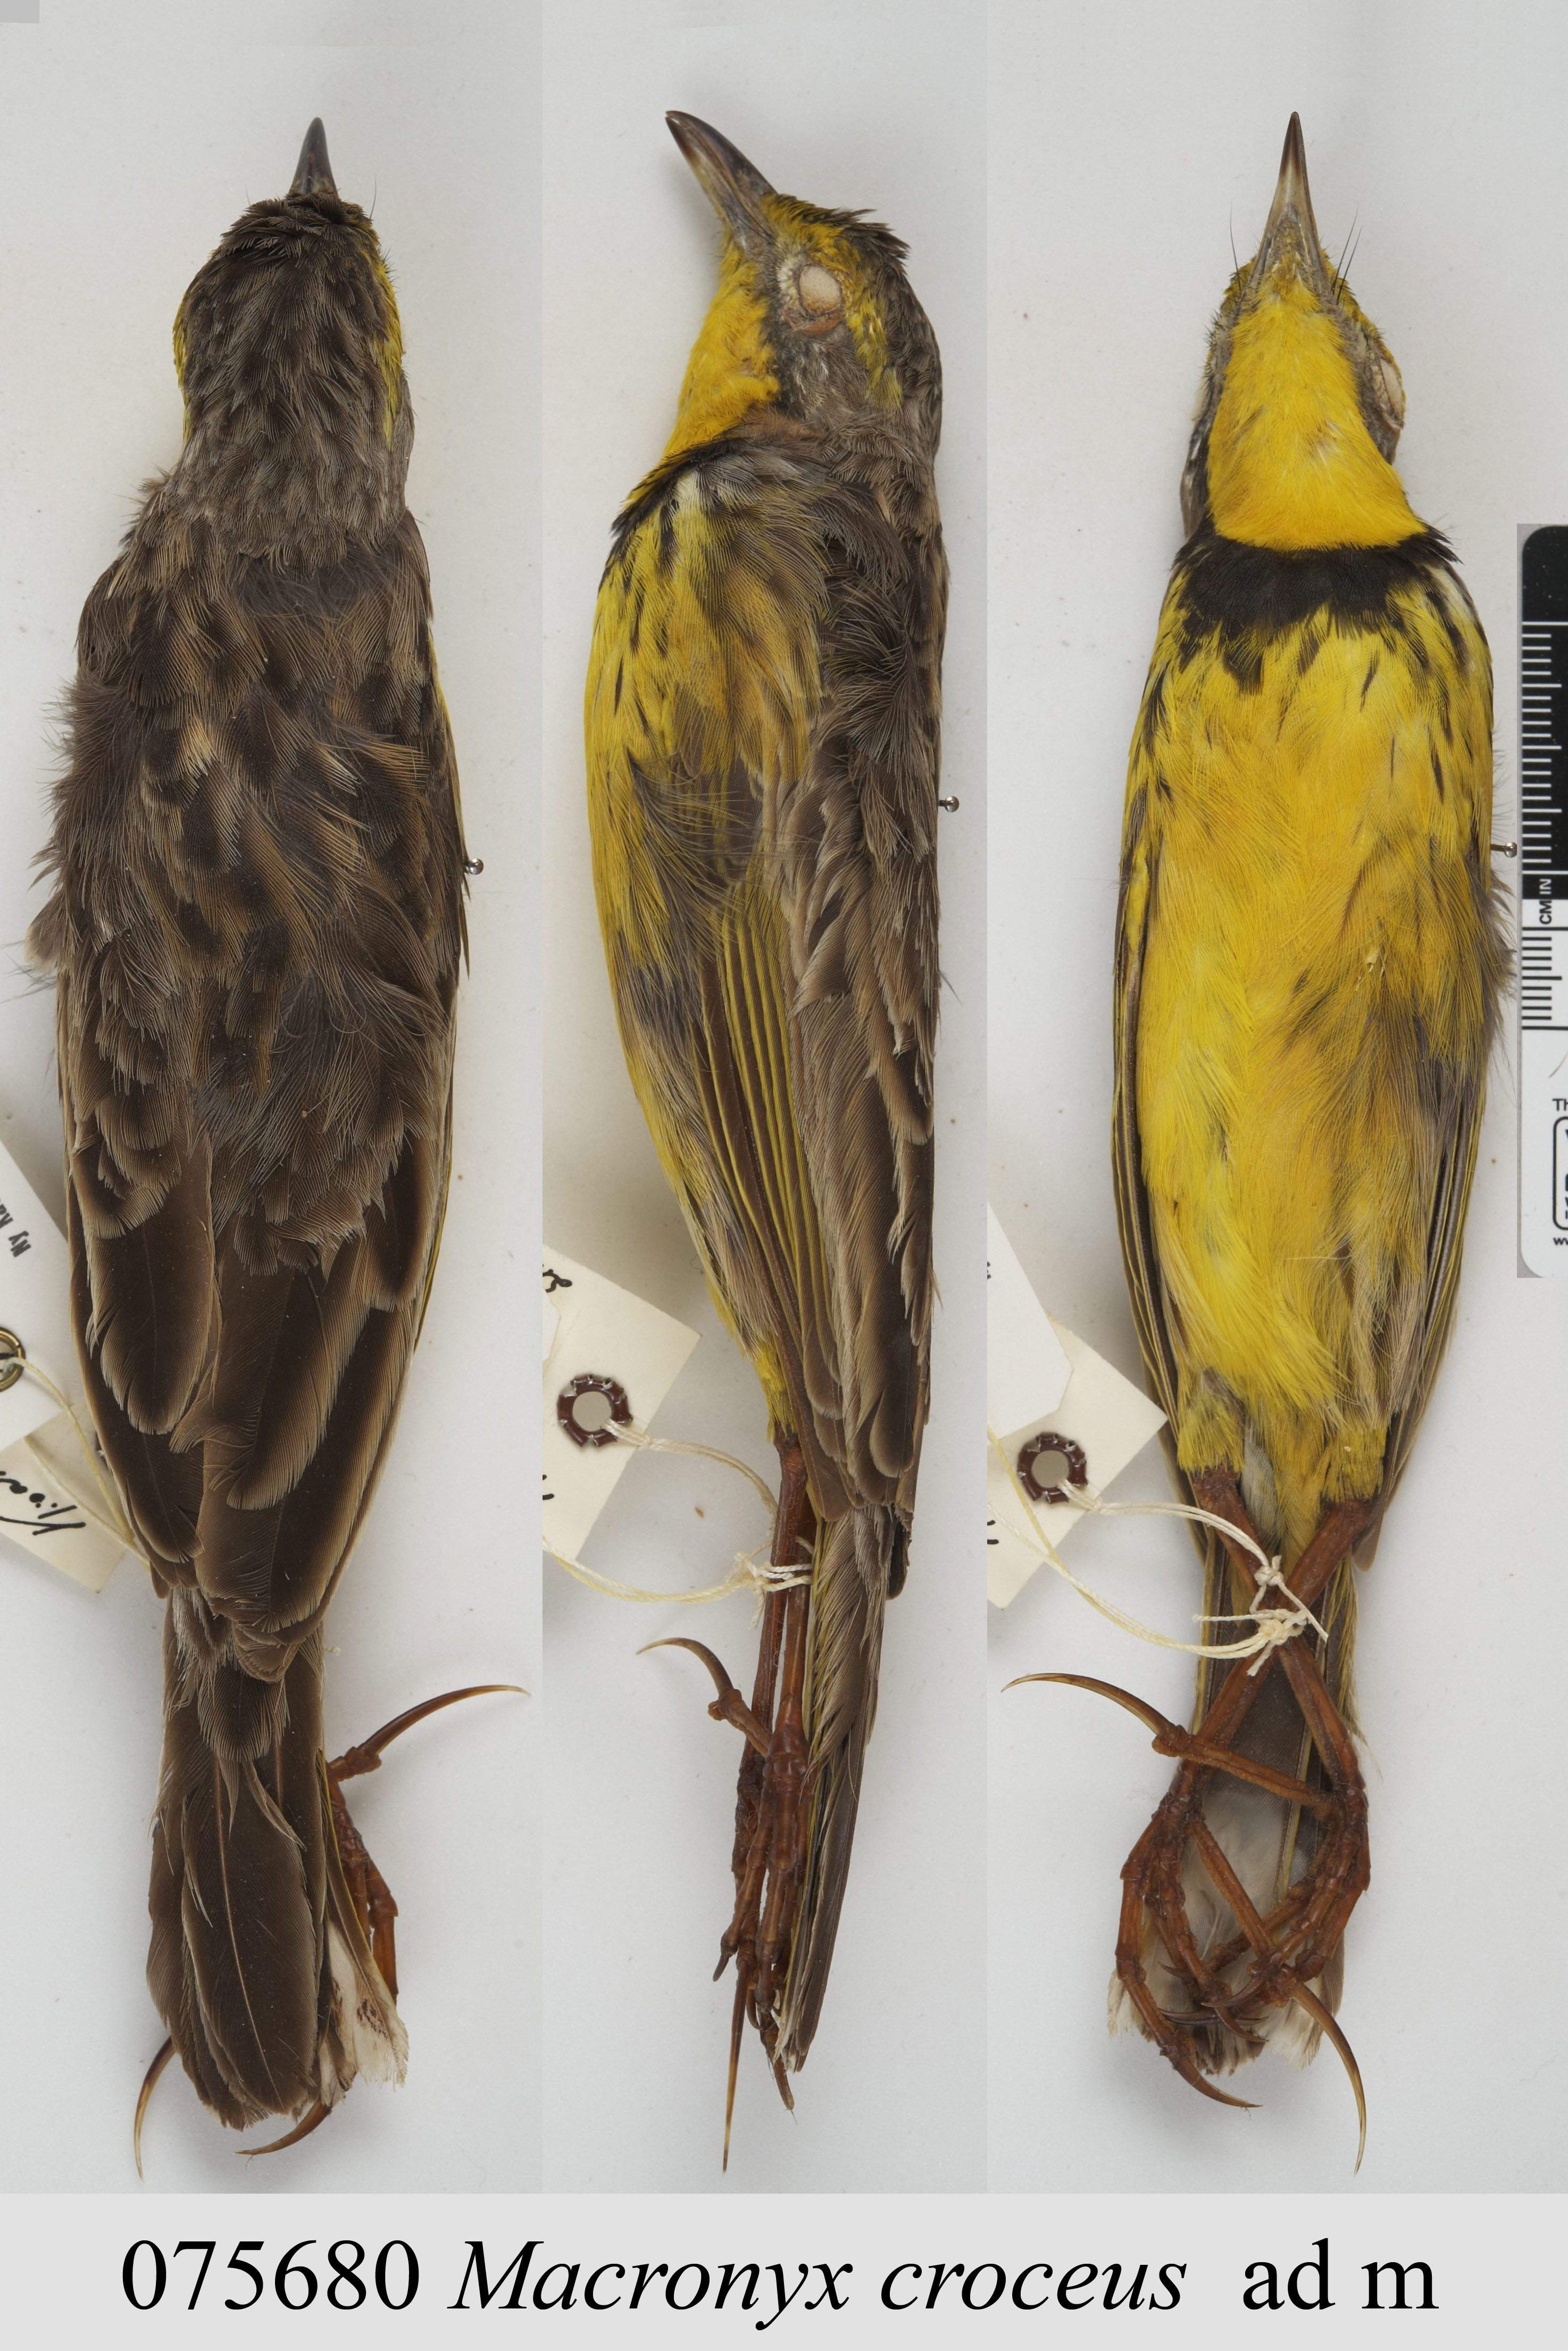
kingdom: Animalia
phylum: Chordata
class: Aves
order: Passeriformes
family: Motacillidae
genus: Macronyx
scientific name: Macronyx croceus
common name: Yellow-throated longclaw
